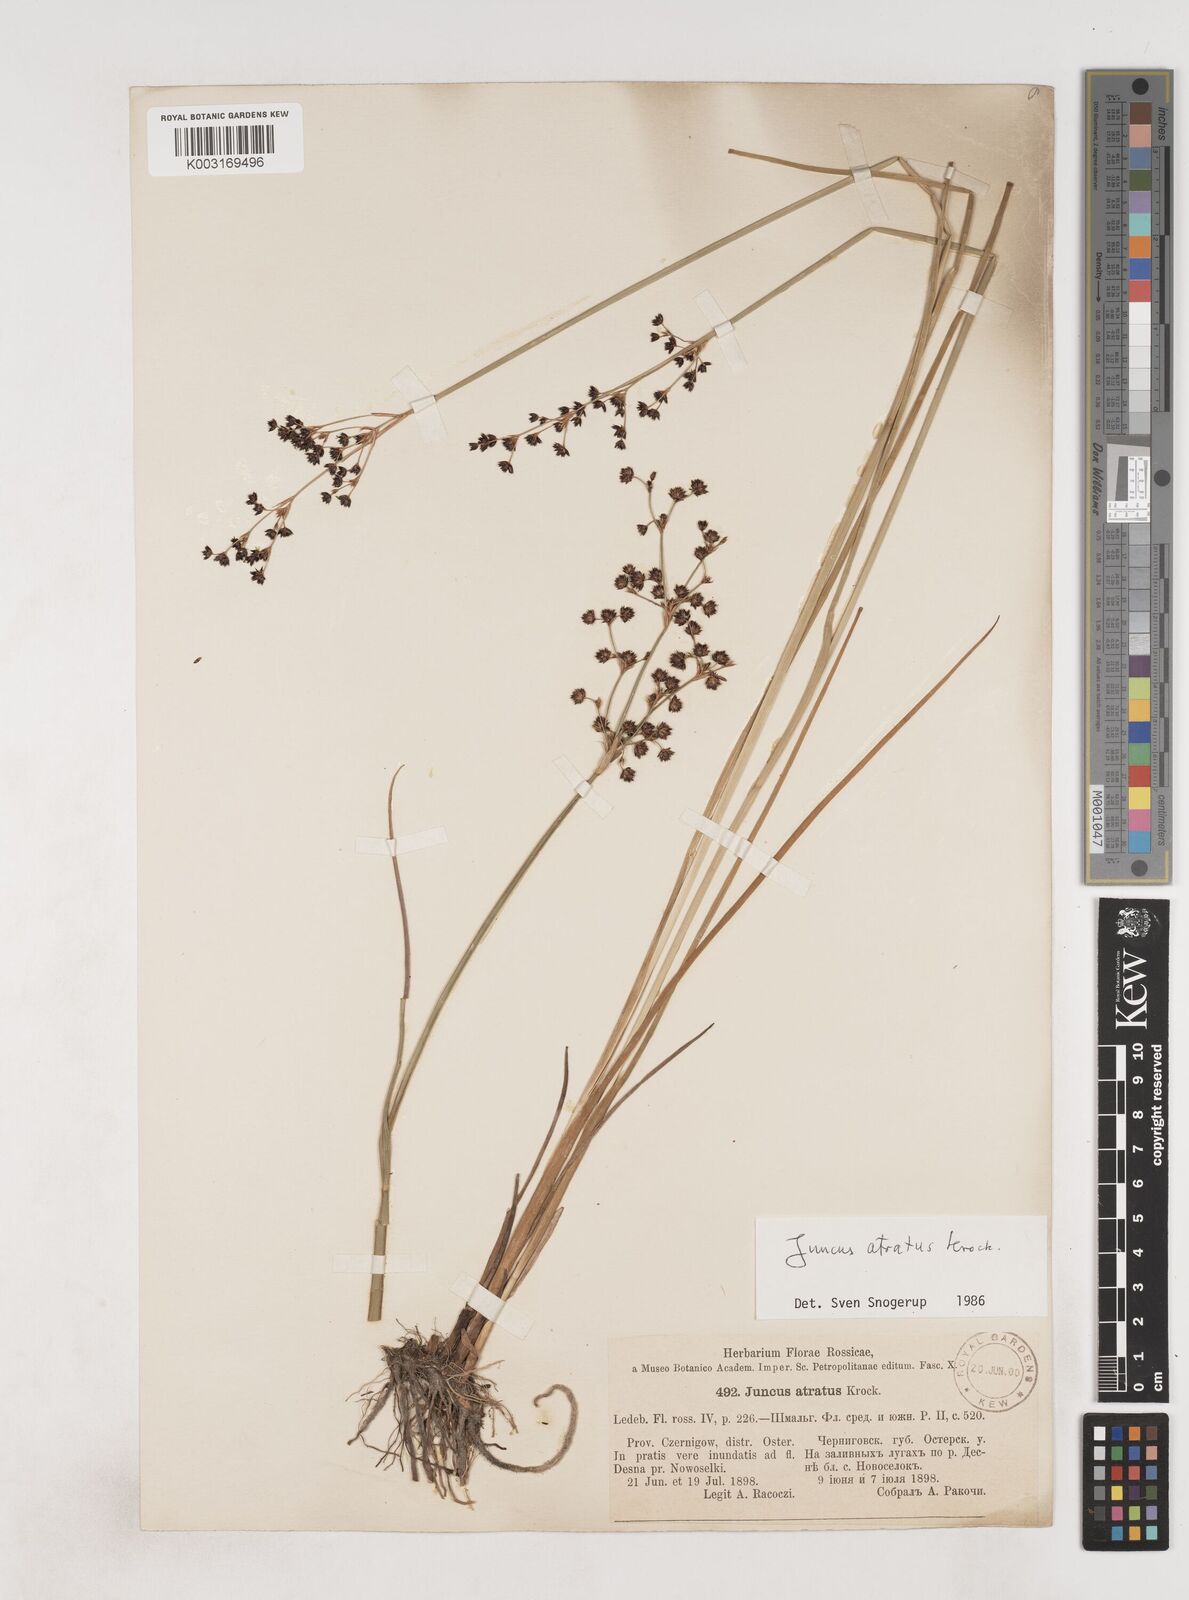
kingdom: Plantae
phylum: Tracheophyta
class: Liliopsida
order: Poales
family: Juncaceae
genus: Juncus
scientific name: Juncus atratus
